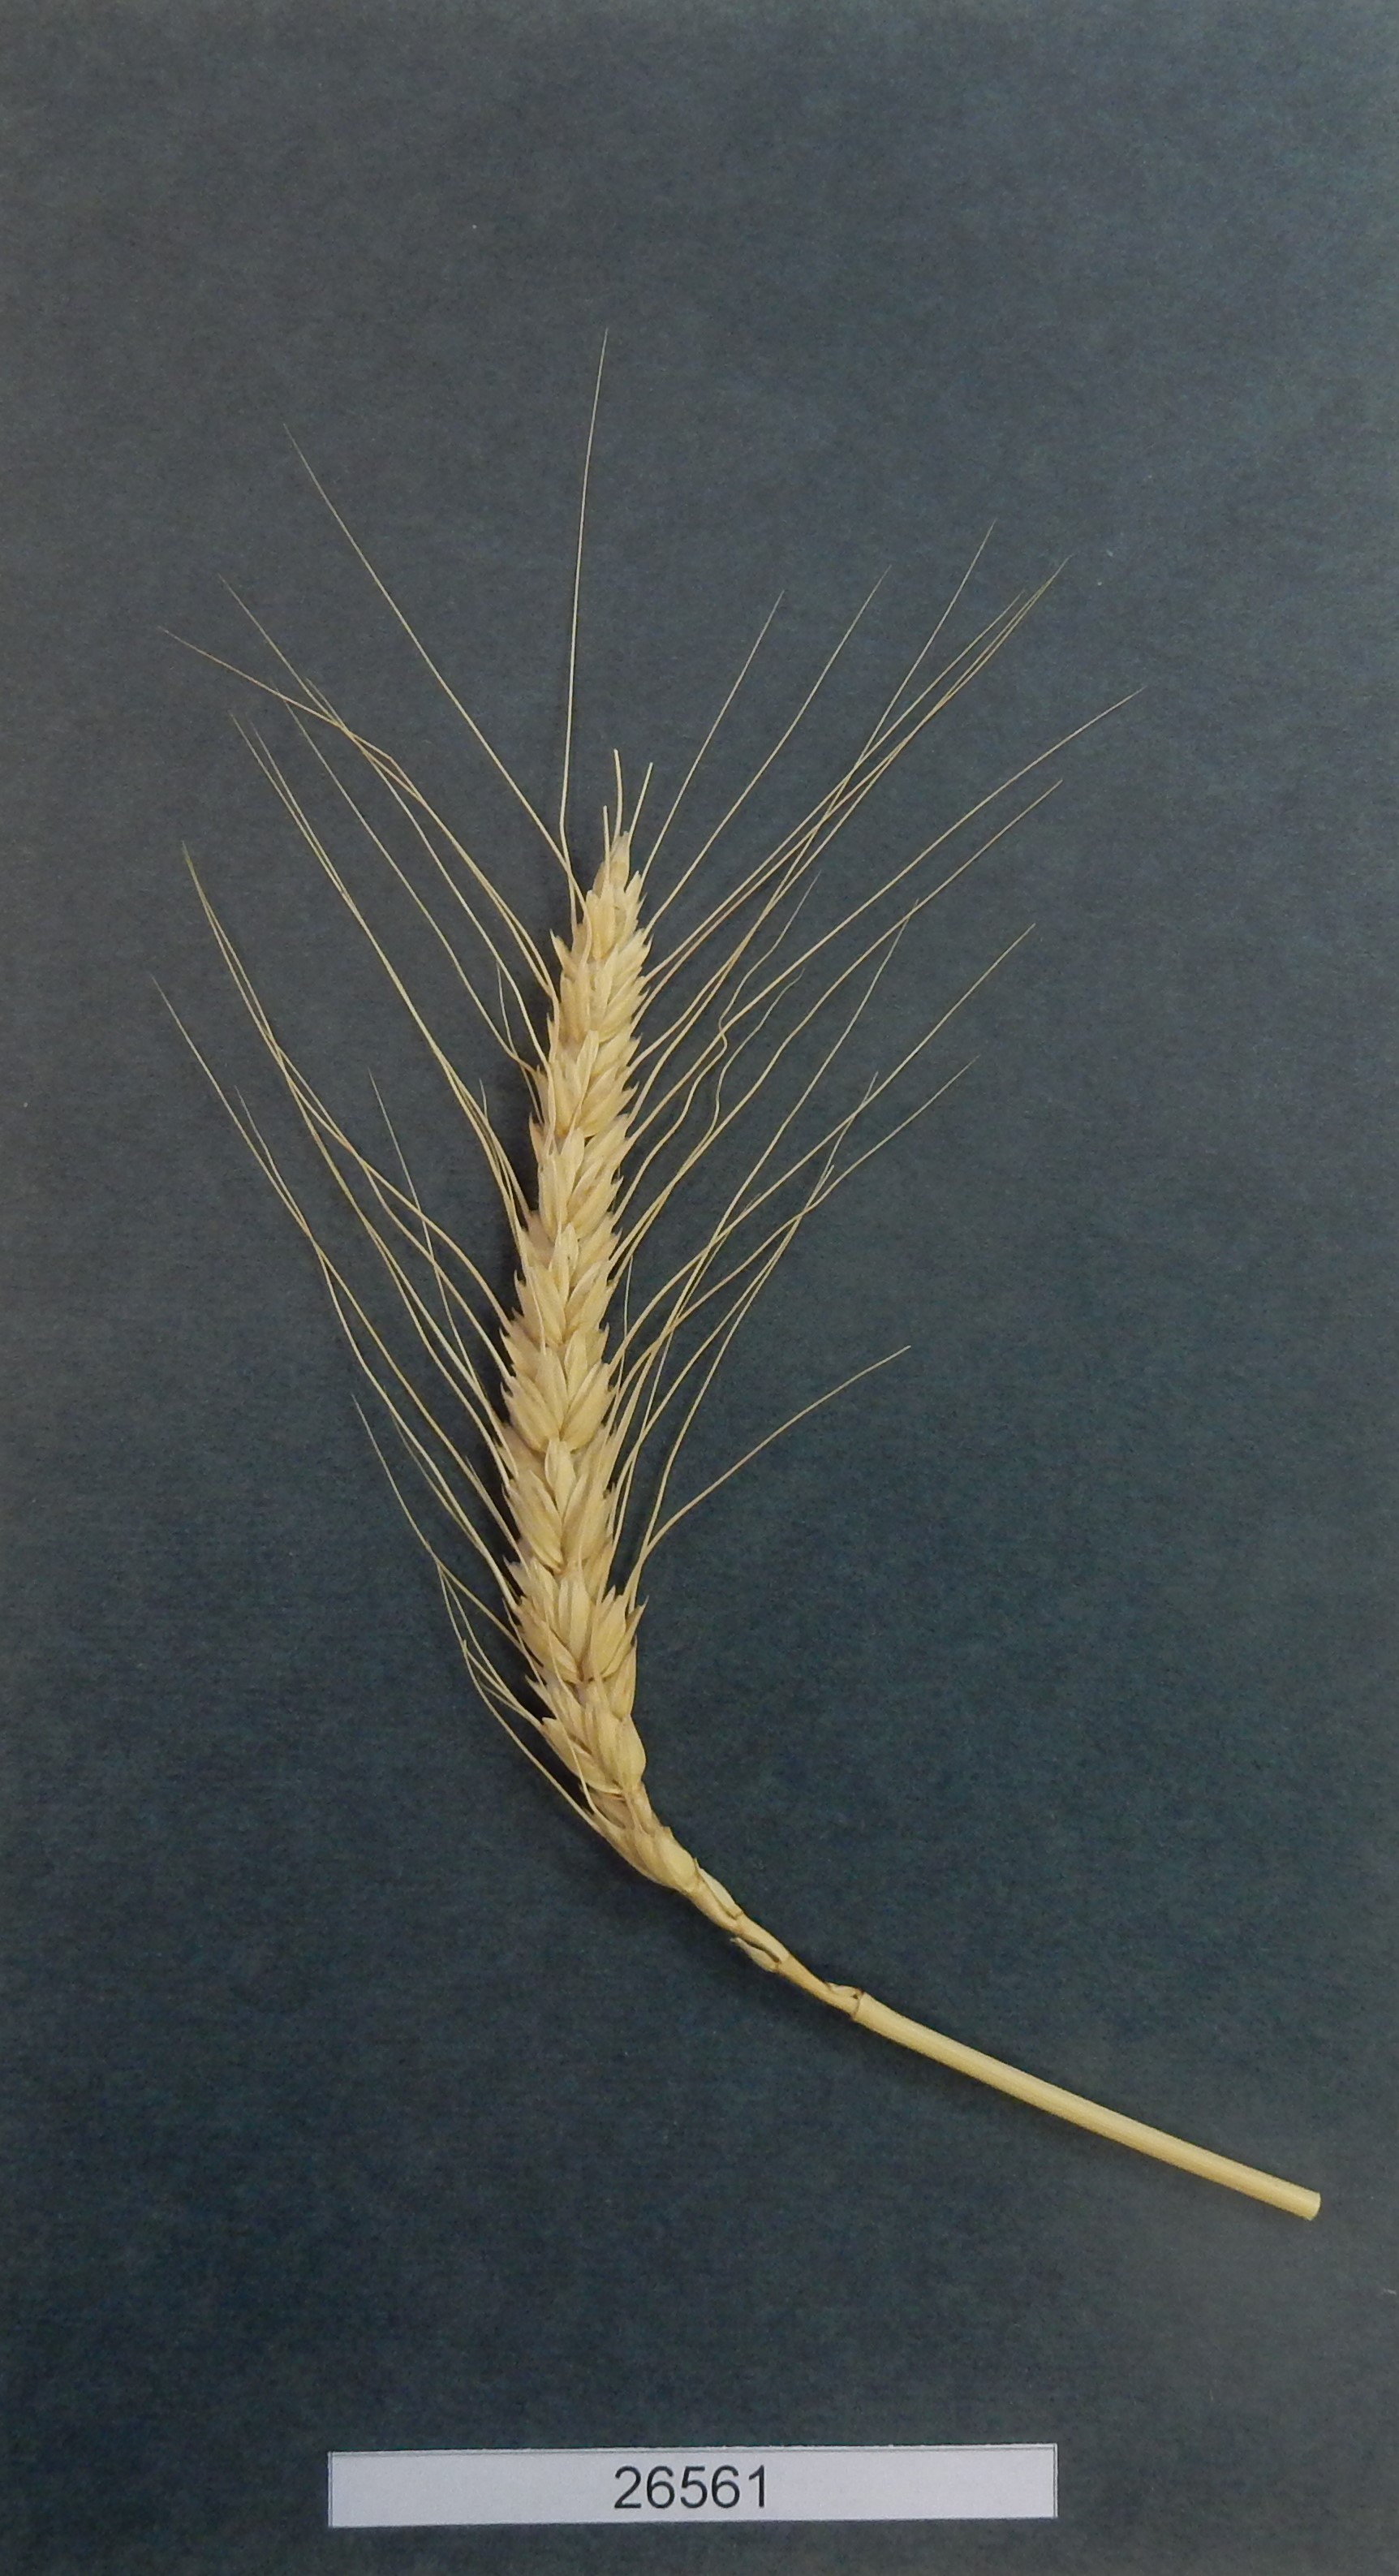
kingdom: Plantae
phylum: Tracheophyta
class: Liliopsida
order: Poales
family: Poaceae
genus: Triticum
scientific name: Triticum turgidum
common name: Wheat
